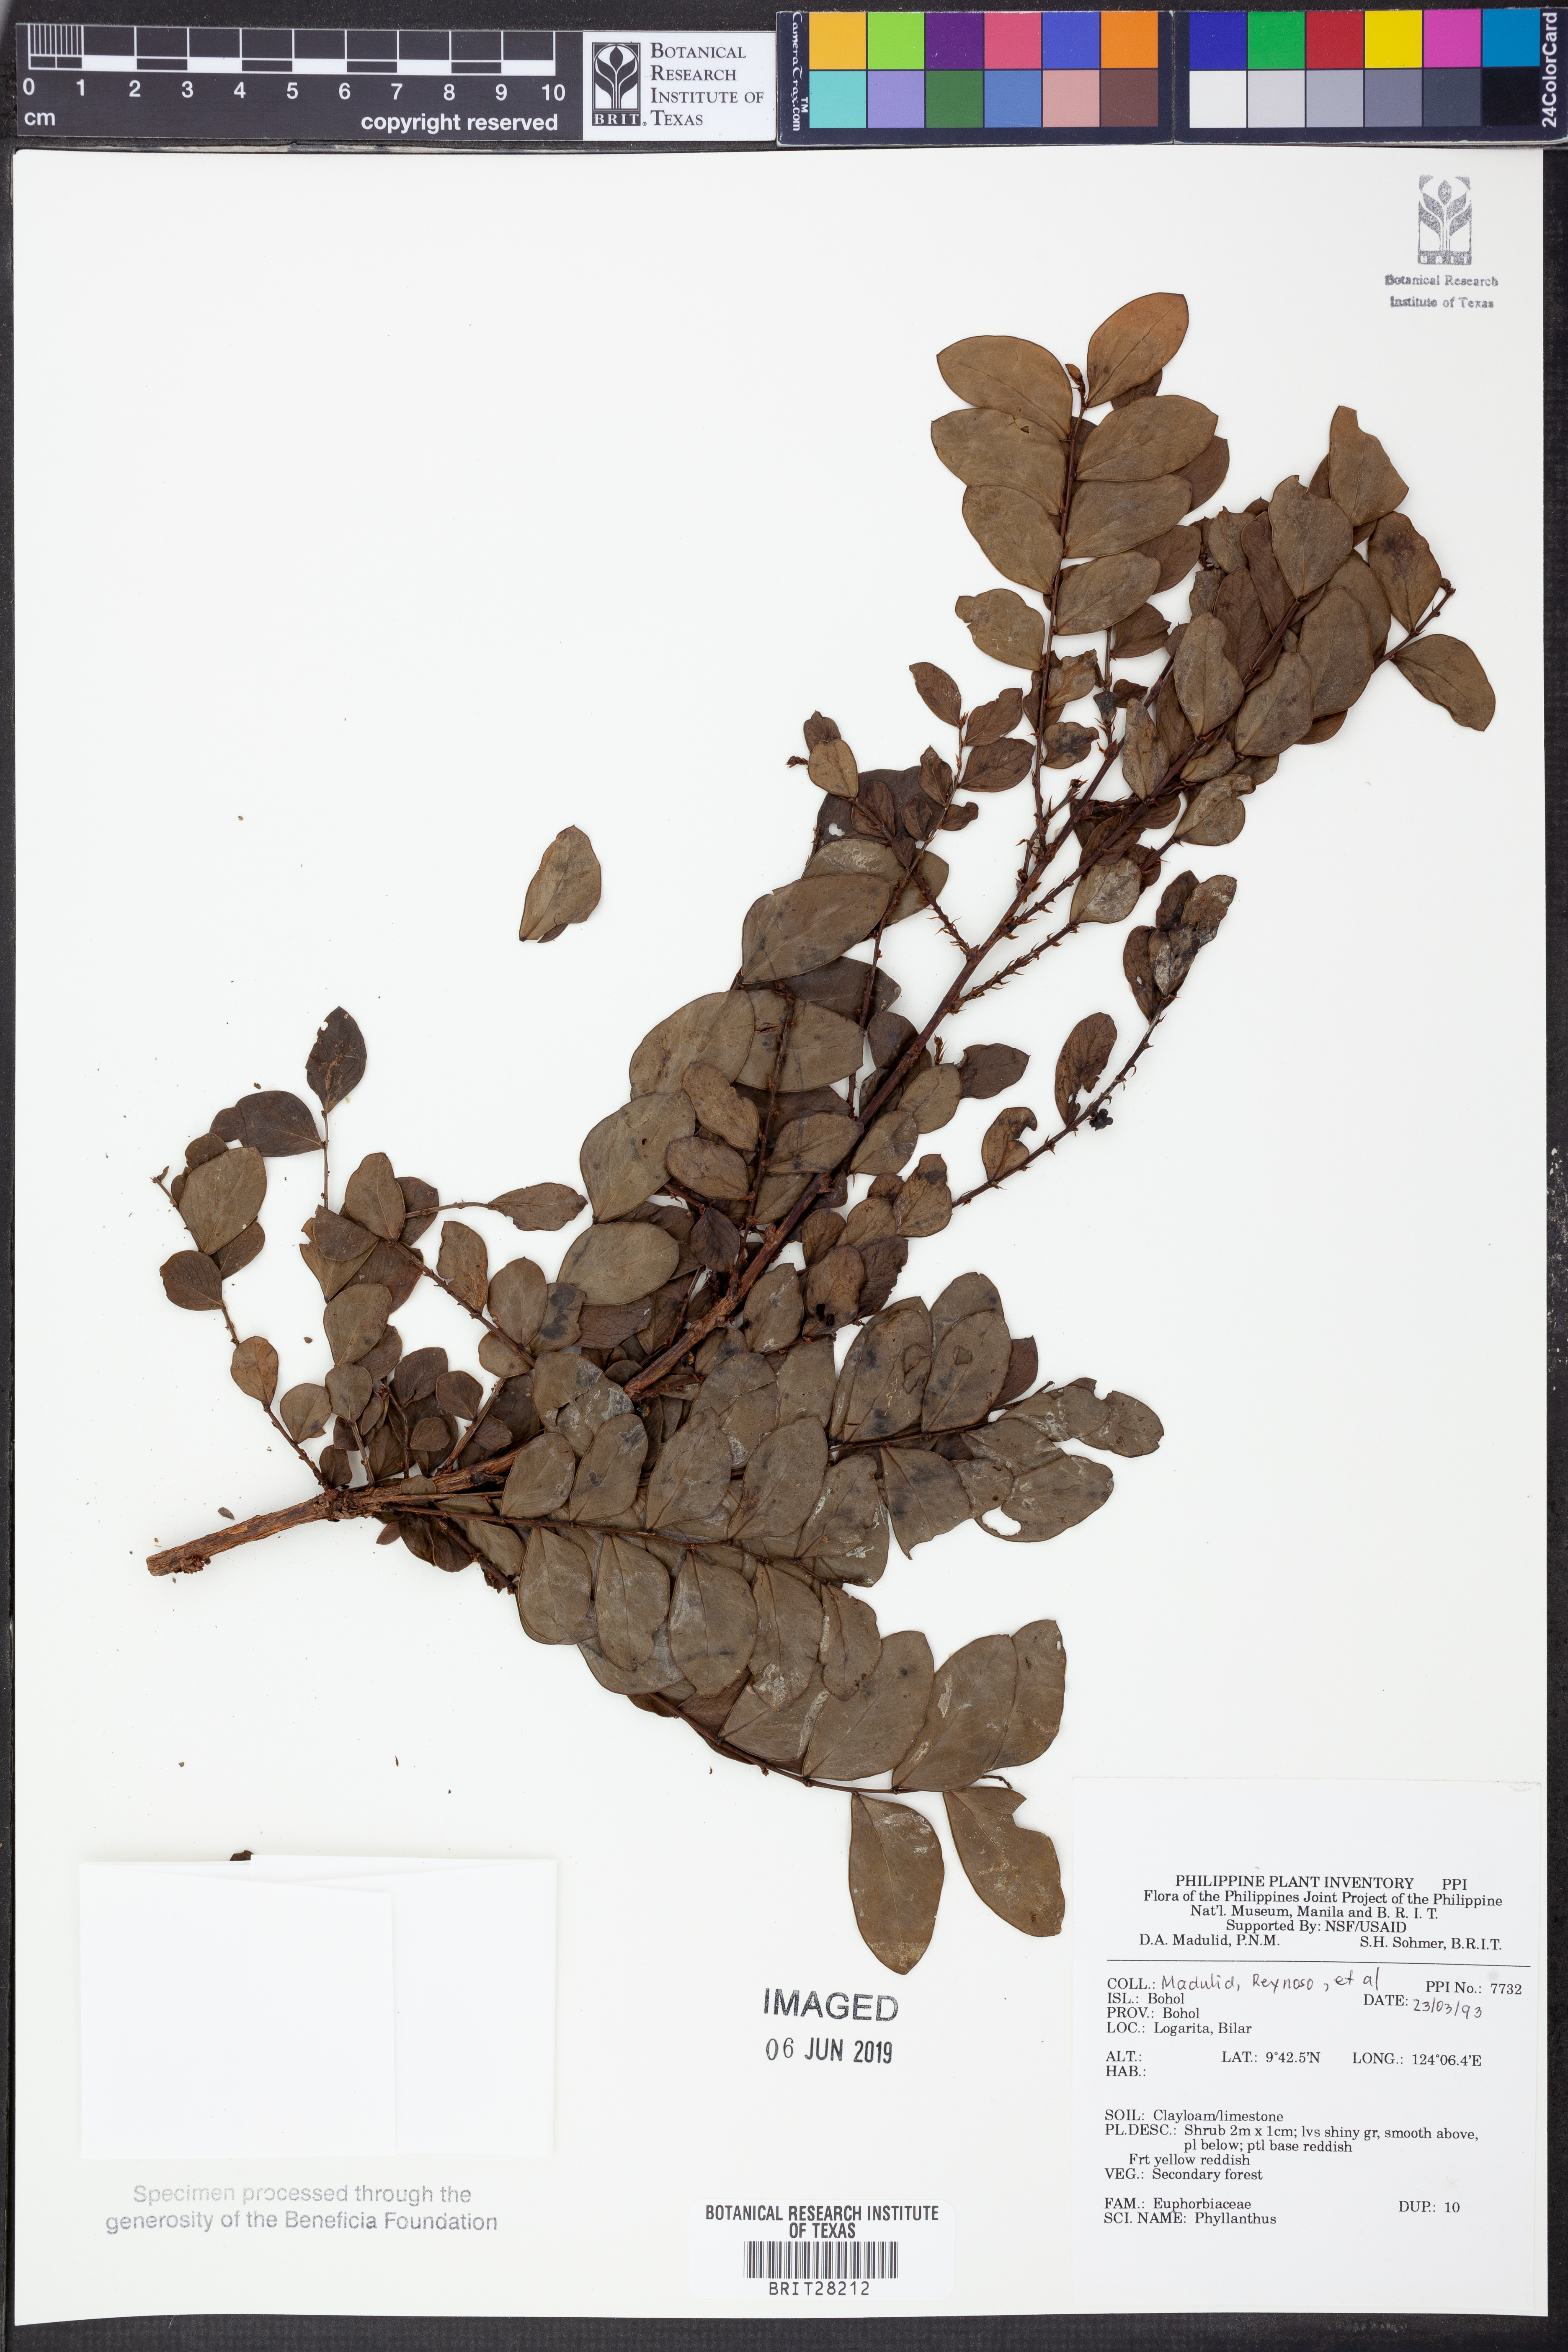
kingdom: Plantae
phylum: Tracheophyta
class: Magnoliopsida
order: Malpighiales
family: Phyllanthaceae
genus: Phyllanthus
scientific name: Phyllanthus
